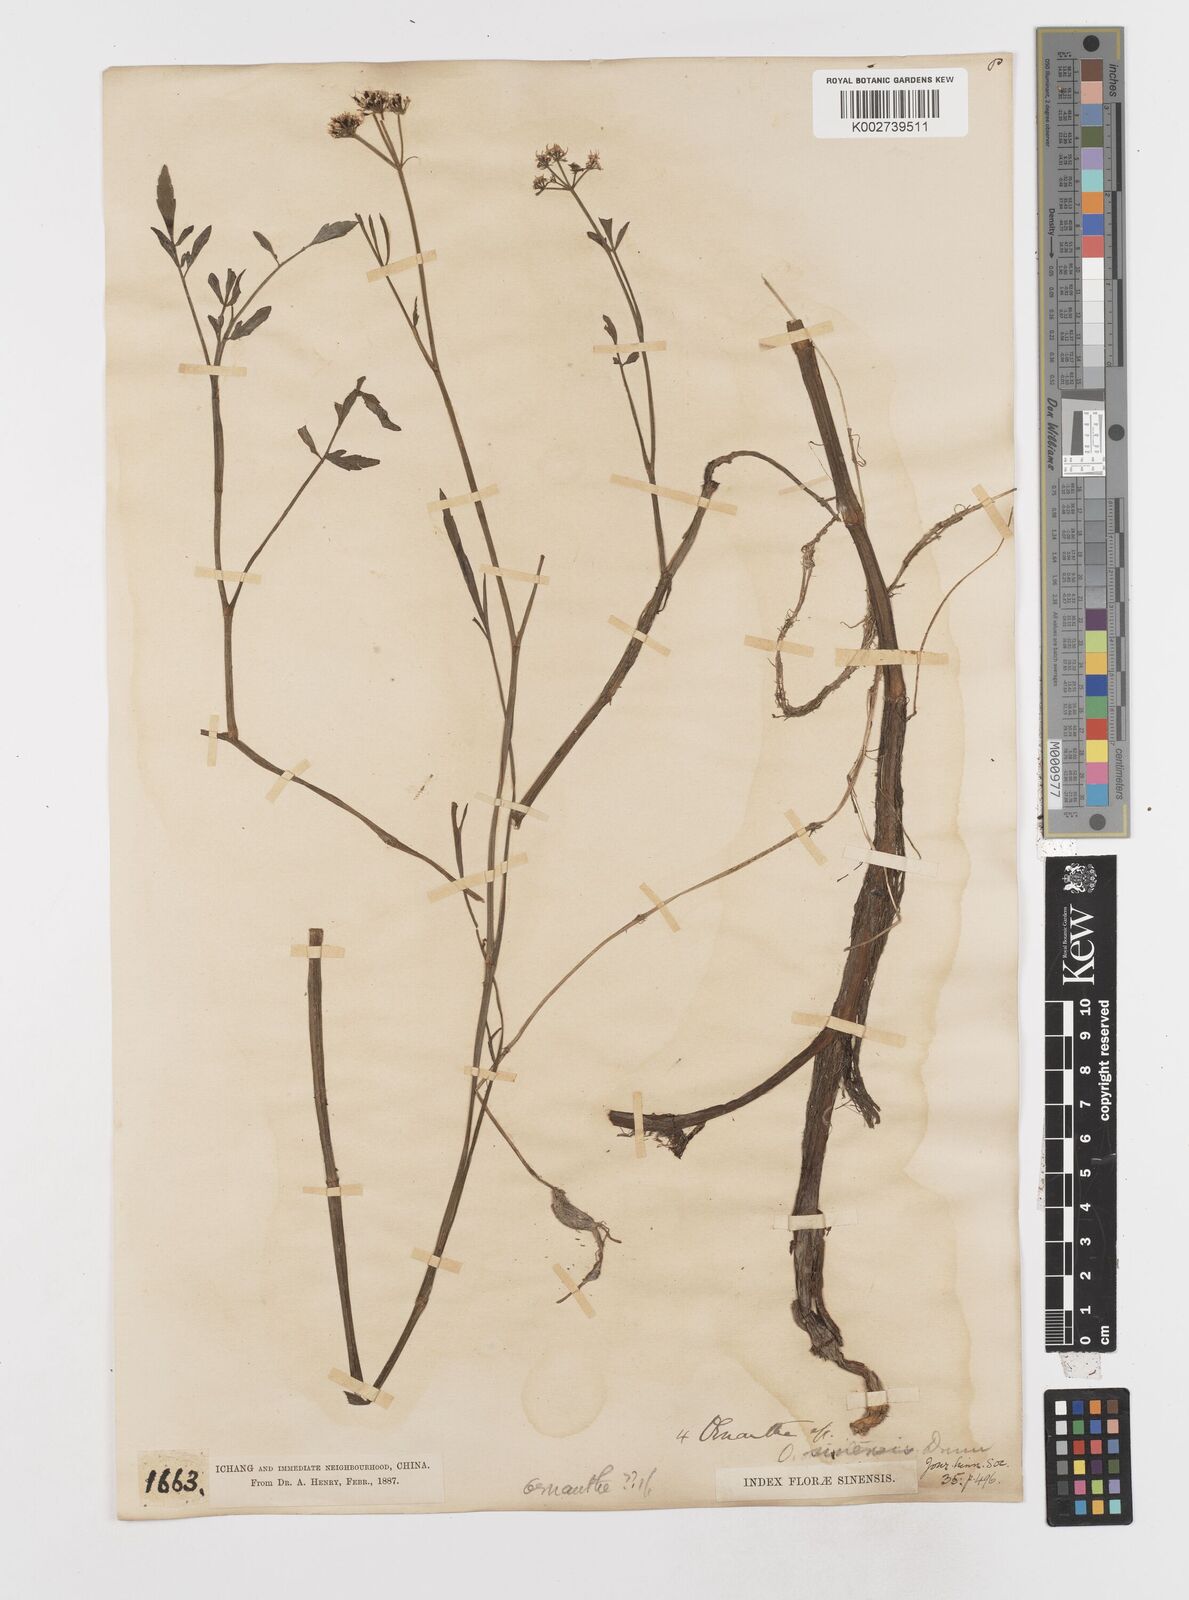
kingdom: Plantae
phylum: Tracheophyta
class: Magnoliopsida
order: Apiales
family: Apiaceae
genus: Oenanthe
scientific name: Oenanthe linearis
